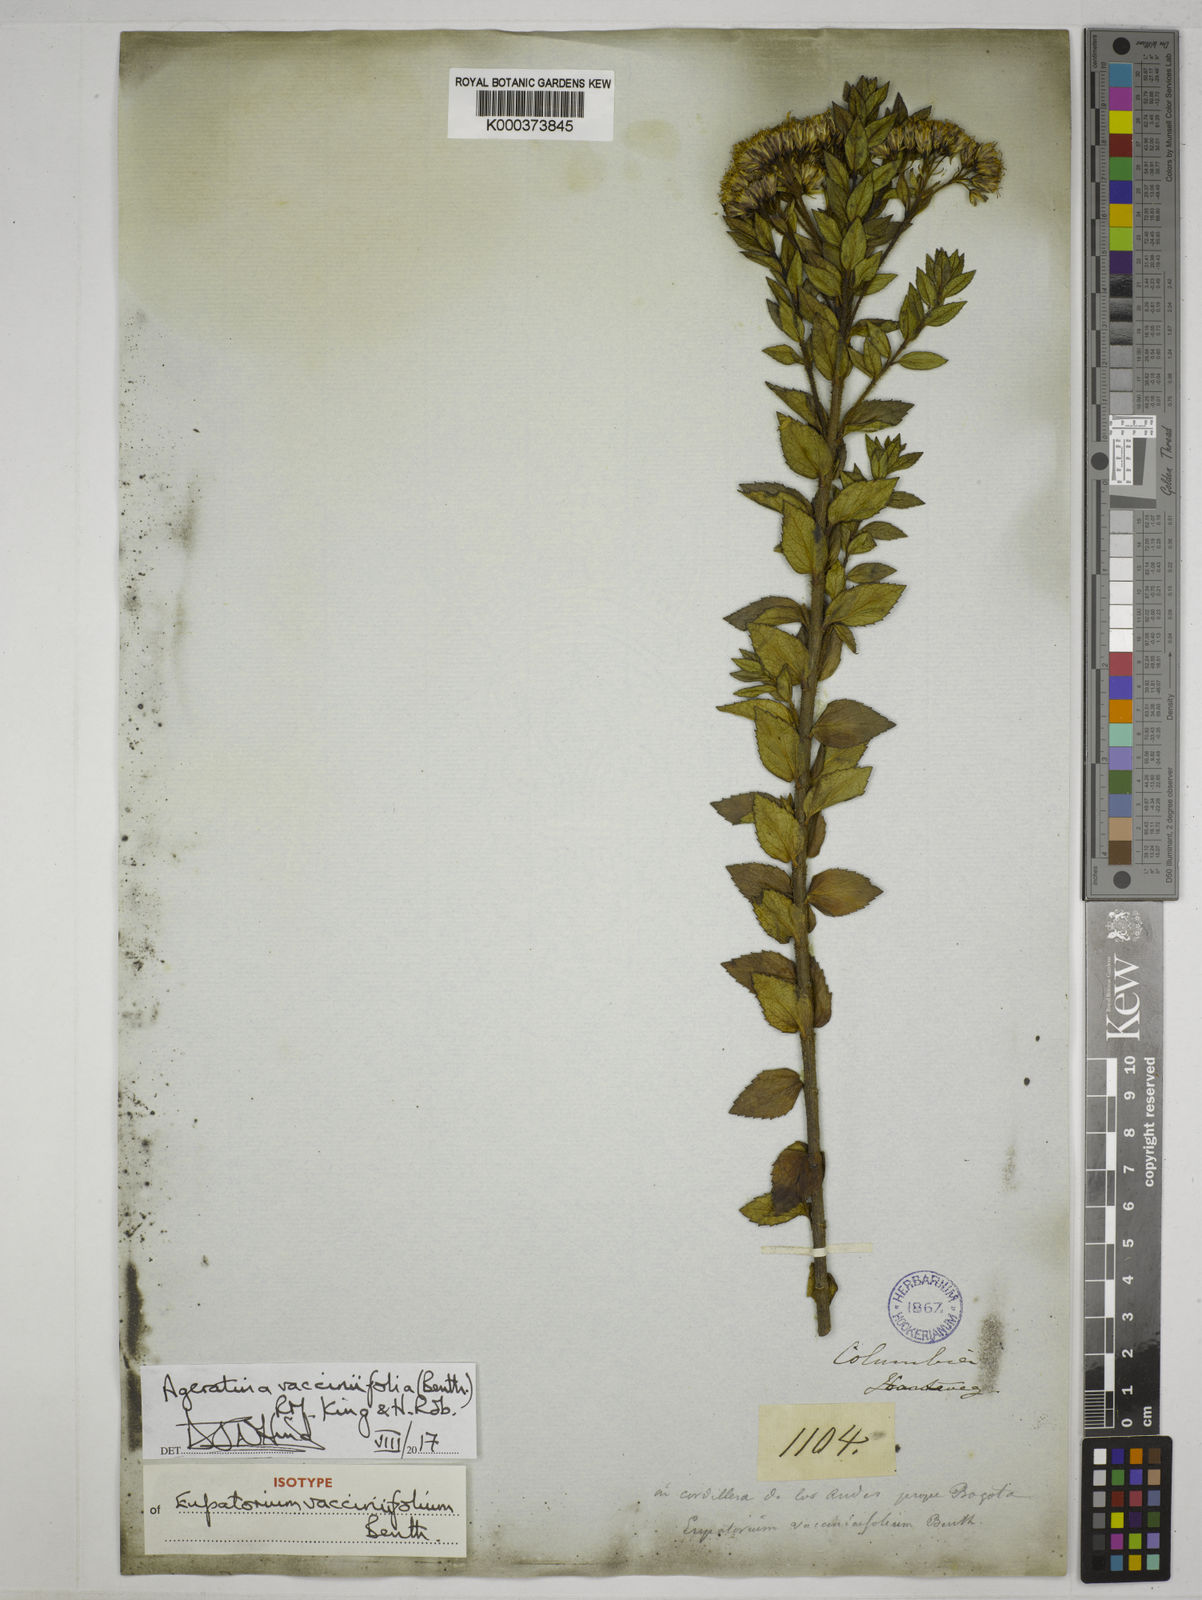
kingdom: Plantae
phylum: Tracheophyta
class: Magnoliopsida
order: Asterales
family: Asteraceae
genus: Ageratina
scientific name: Ageratina vacciniifolia
